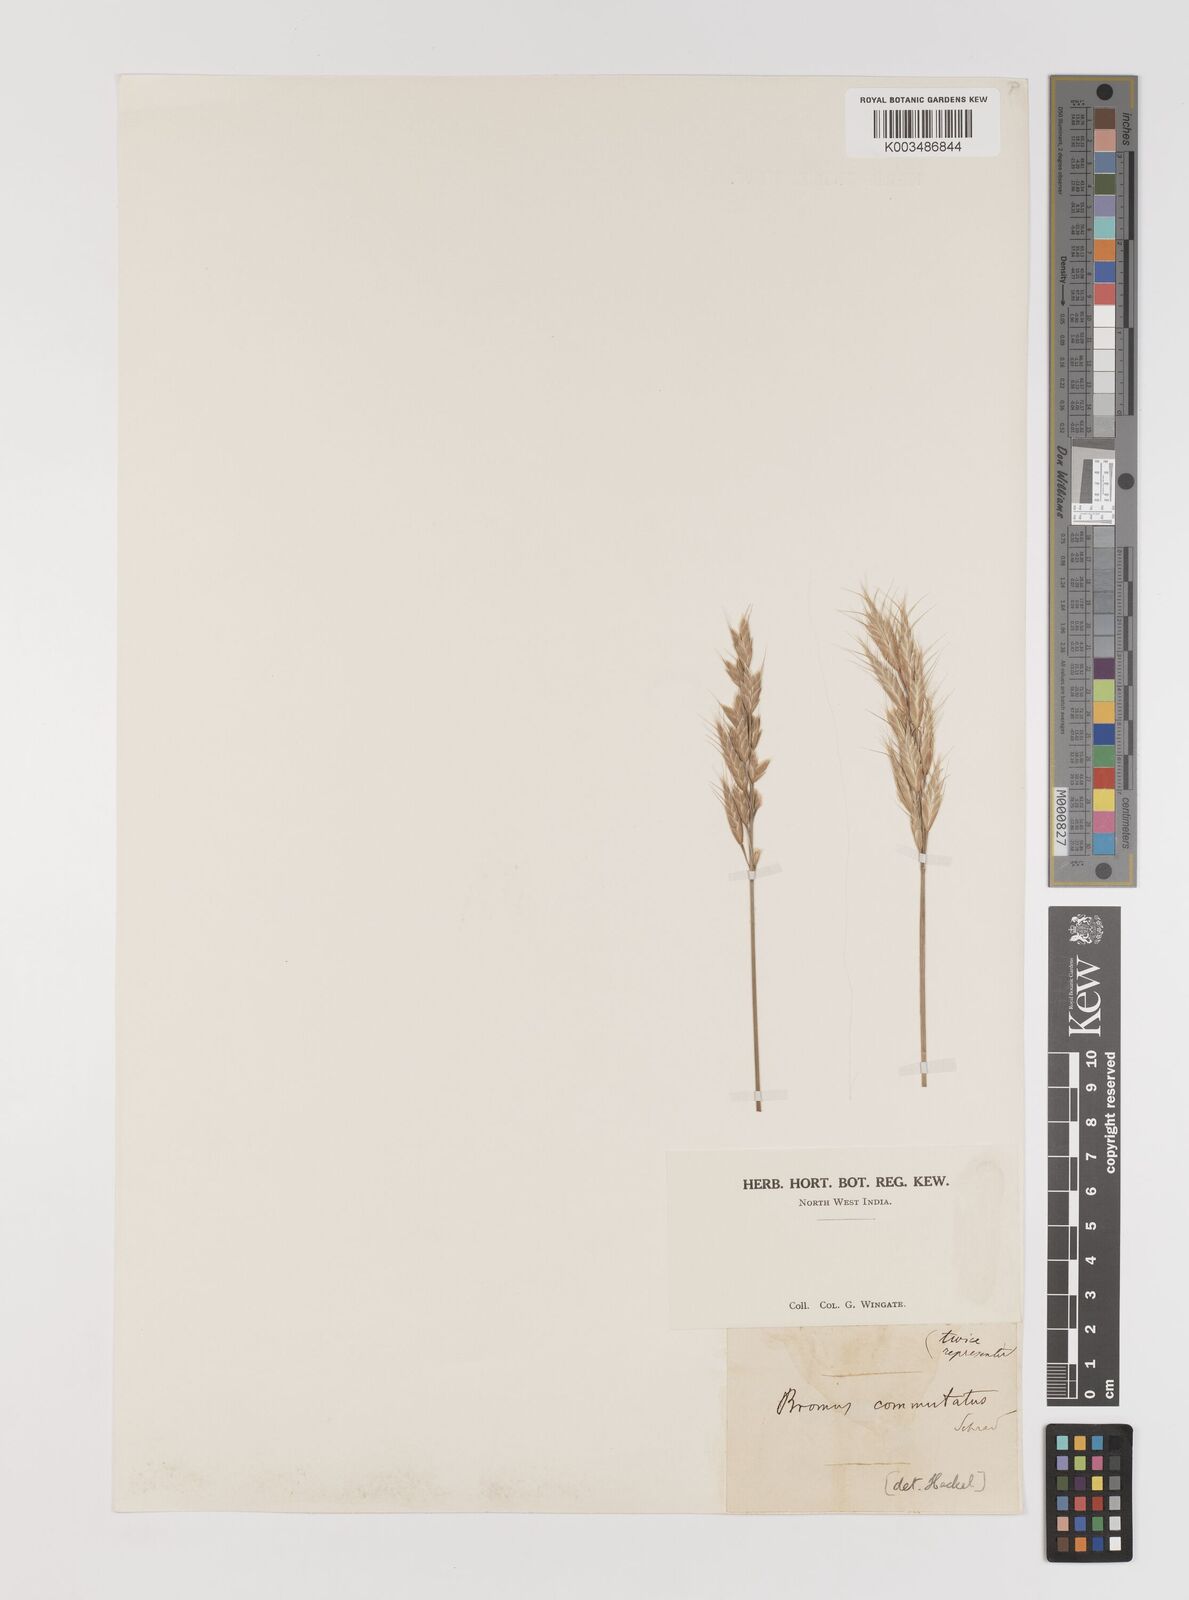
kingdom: Plantae
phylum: Tracheophyta
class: Liliopsida
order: Poales
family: Poaceae
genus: Bromus
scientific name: Bromus
